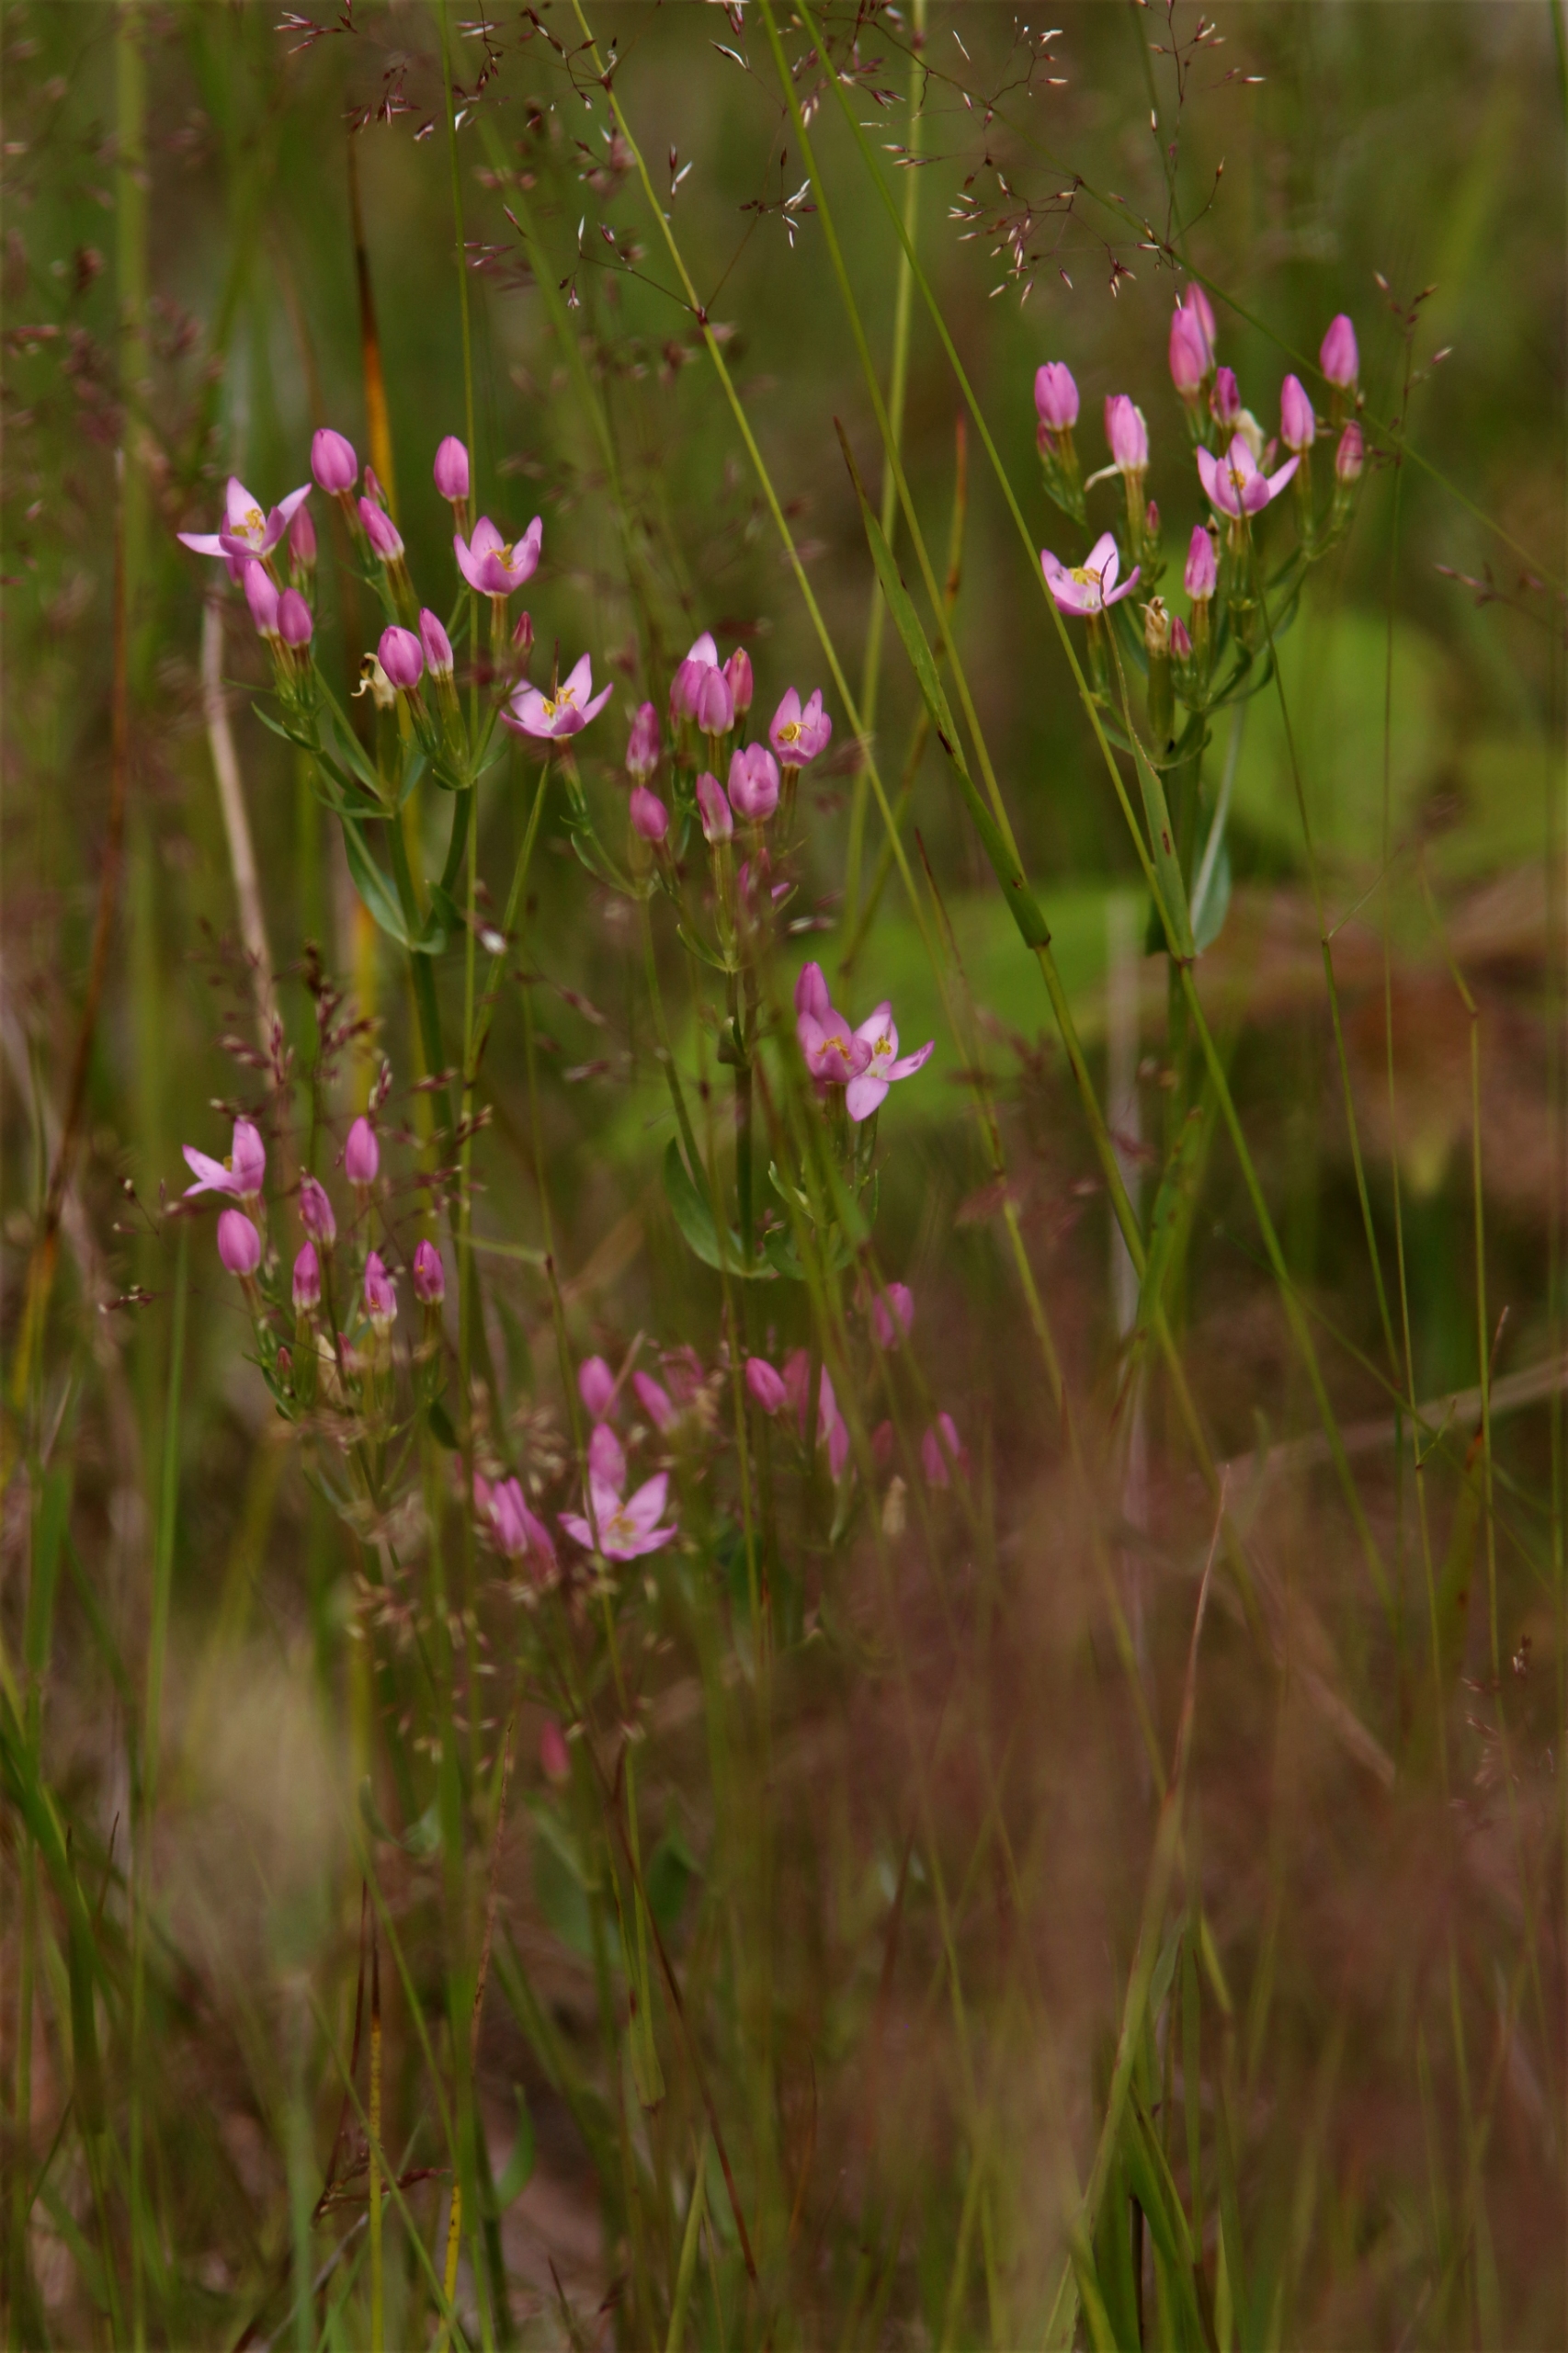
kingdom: Plantae
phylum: Tracheophyta
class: Magnoliopsida
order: Gentianales
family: Gentianaceae
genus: Centaurium
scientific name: Centaurium erythraea
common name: Mark-tusindgylden
